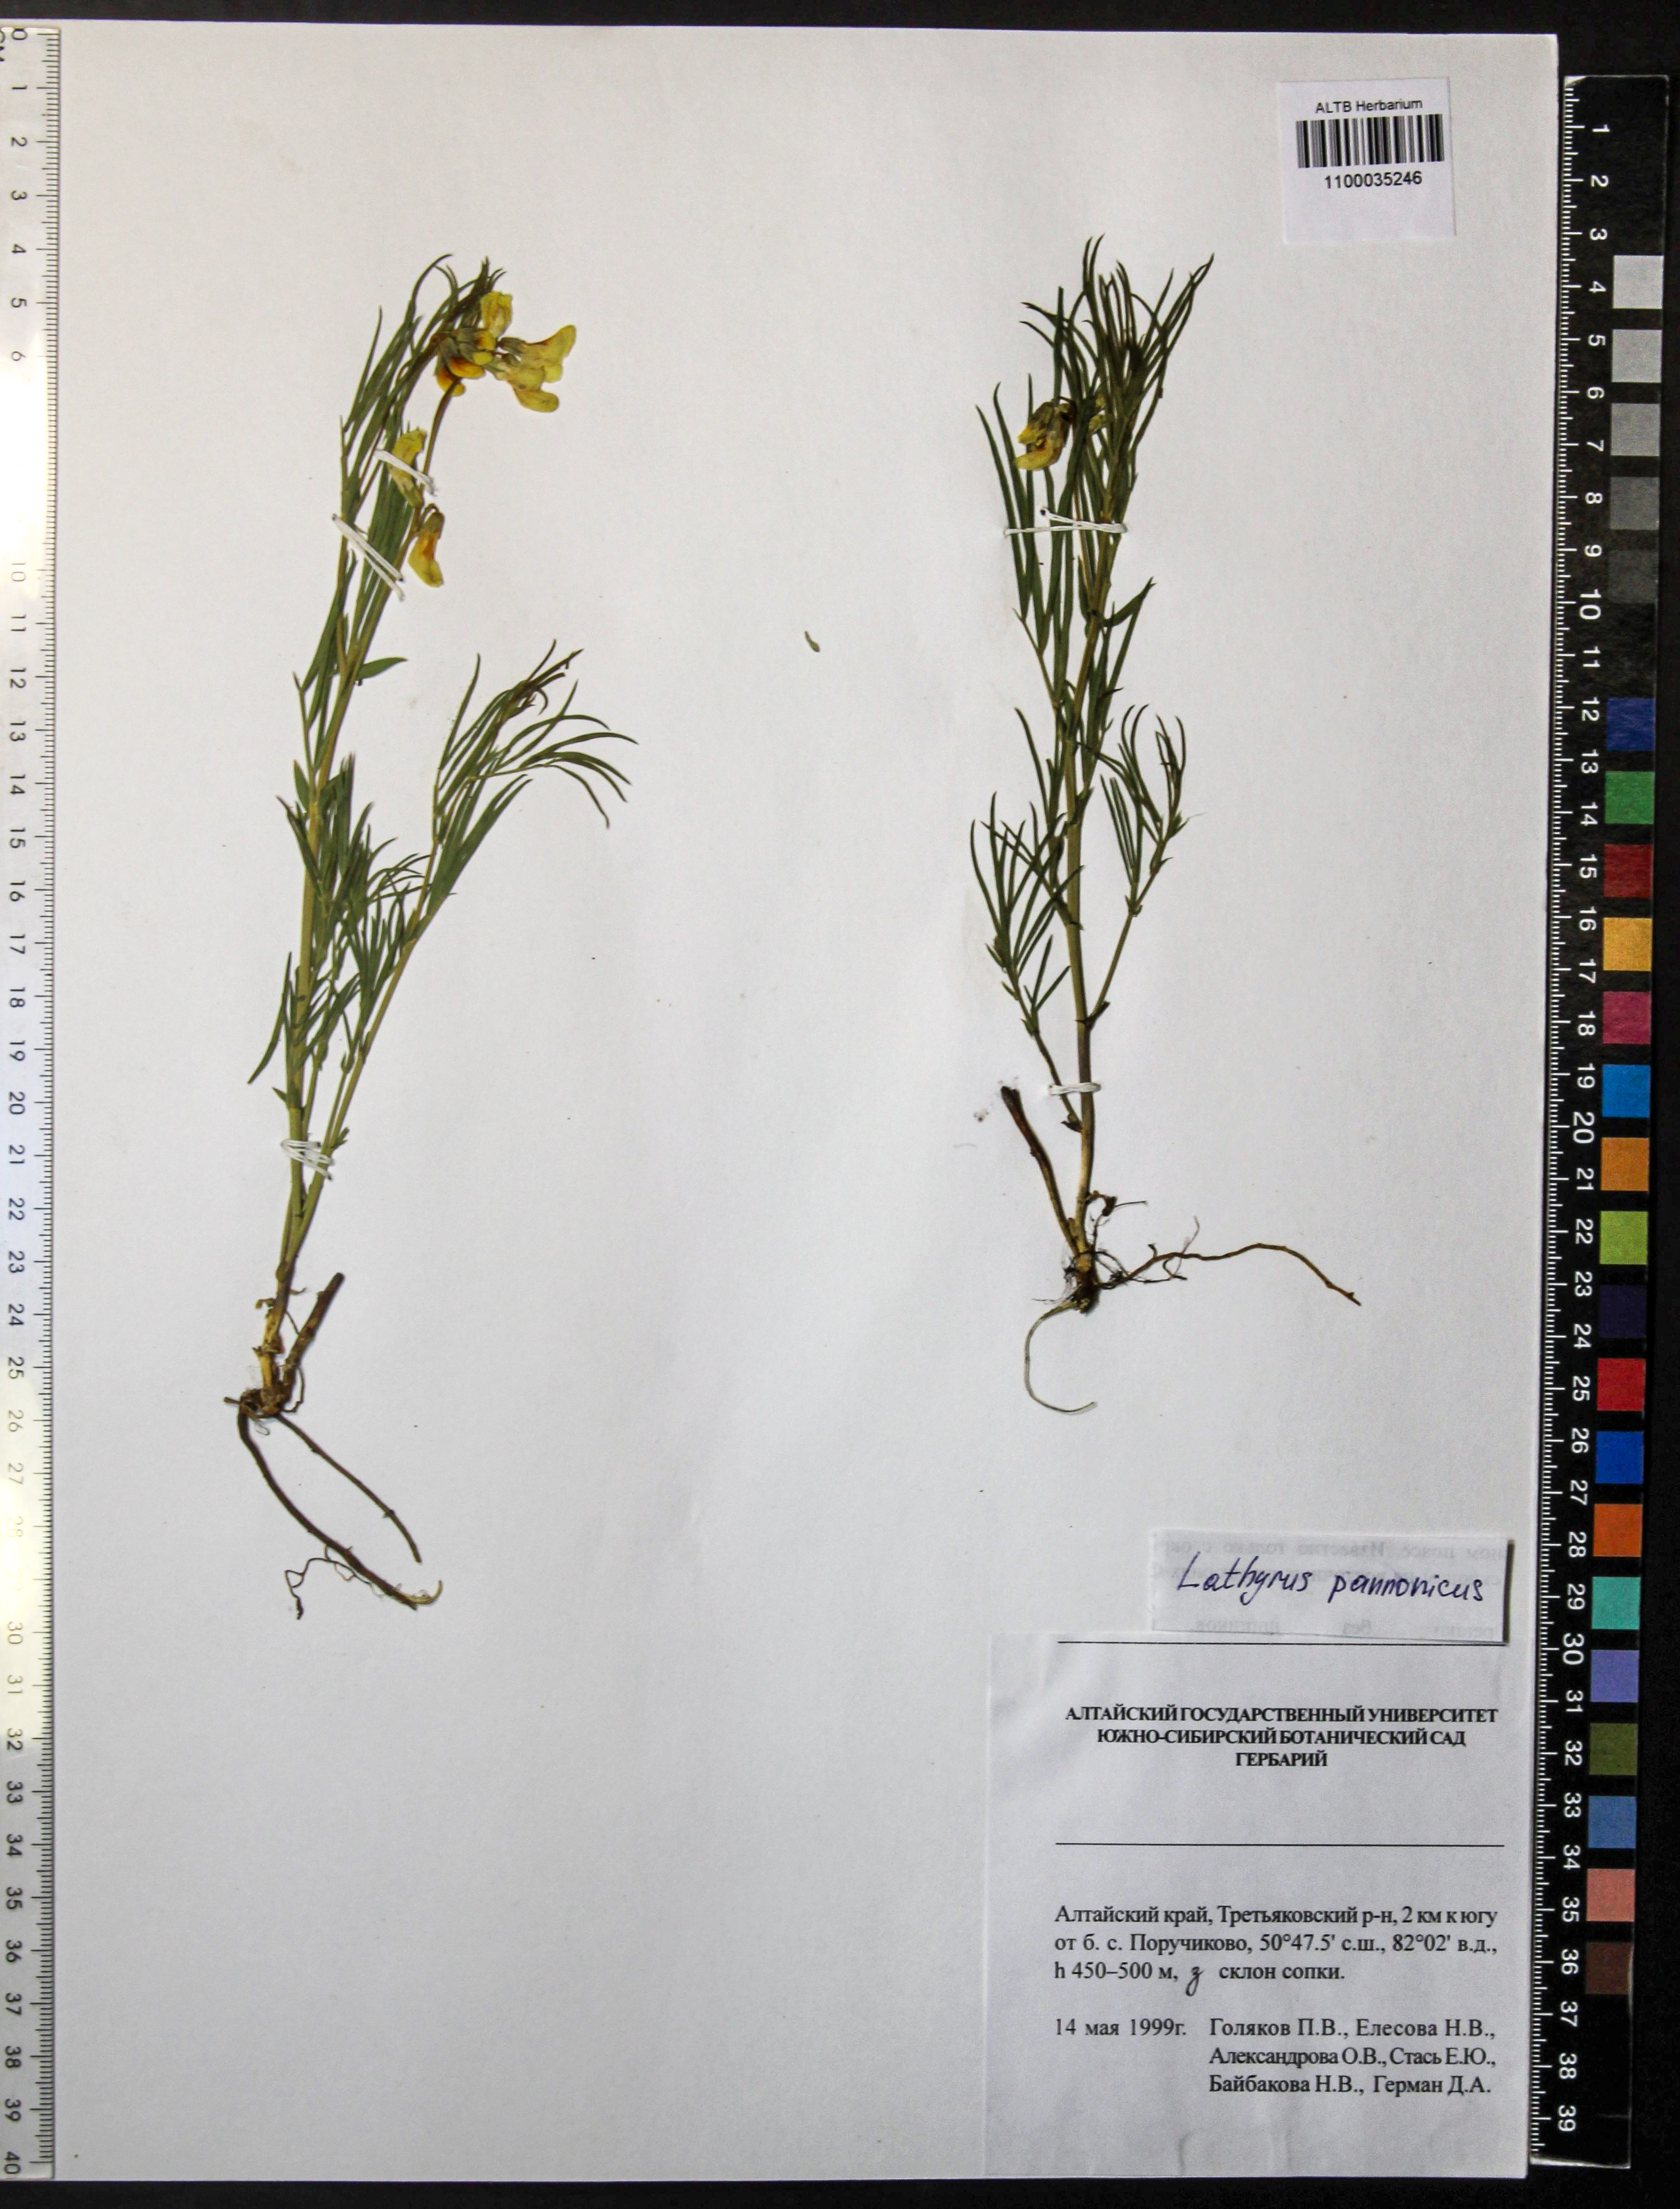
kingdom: Plantae
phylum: Tracheophyta
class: Magnoliopsida
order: Fabales
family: Fabaceae
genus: Lathyrus
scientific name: Lathyrus pannonicus
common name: Pea
